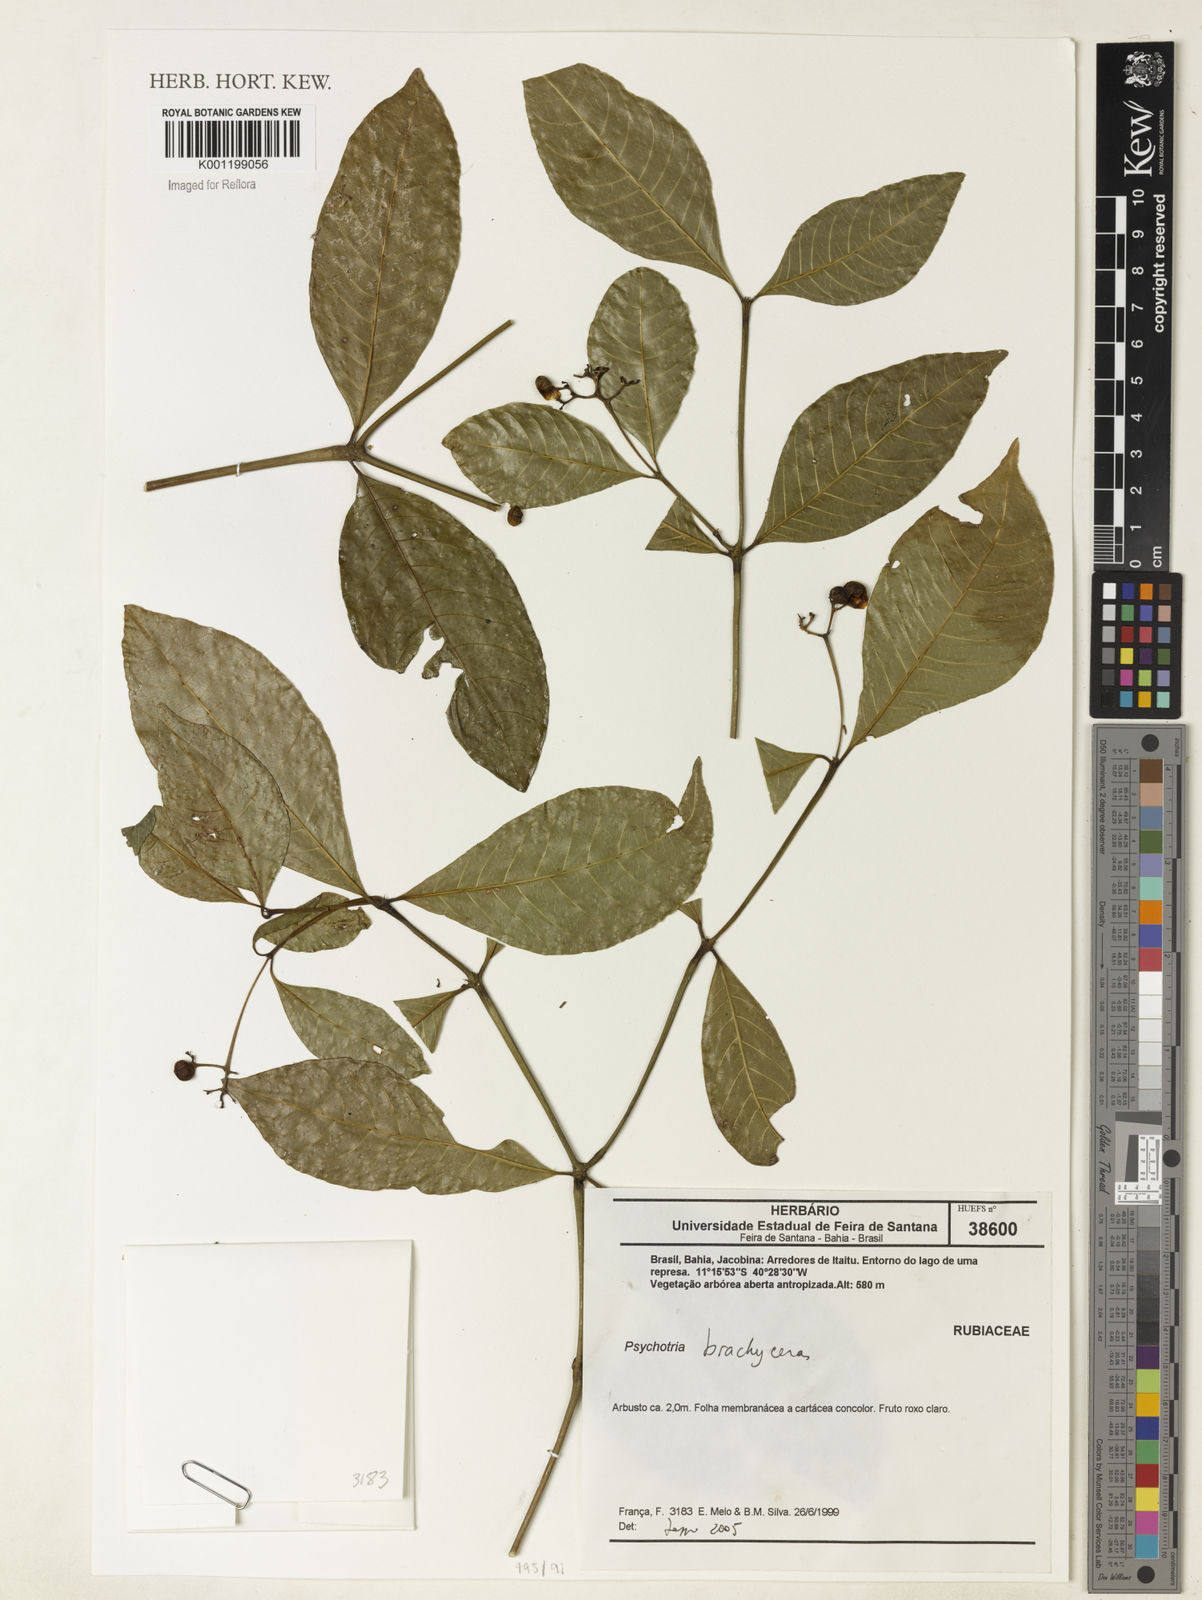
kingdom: Plantae
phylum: Tracheophyta
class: Magnoliopsida
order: Gentianales
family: Rubiaceae
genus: Psychotria
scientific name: Psychotria
